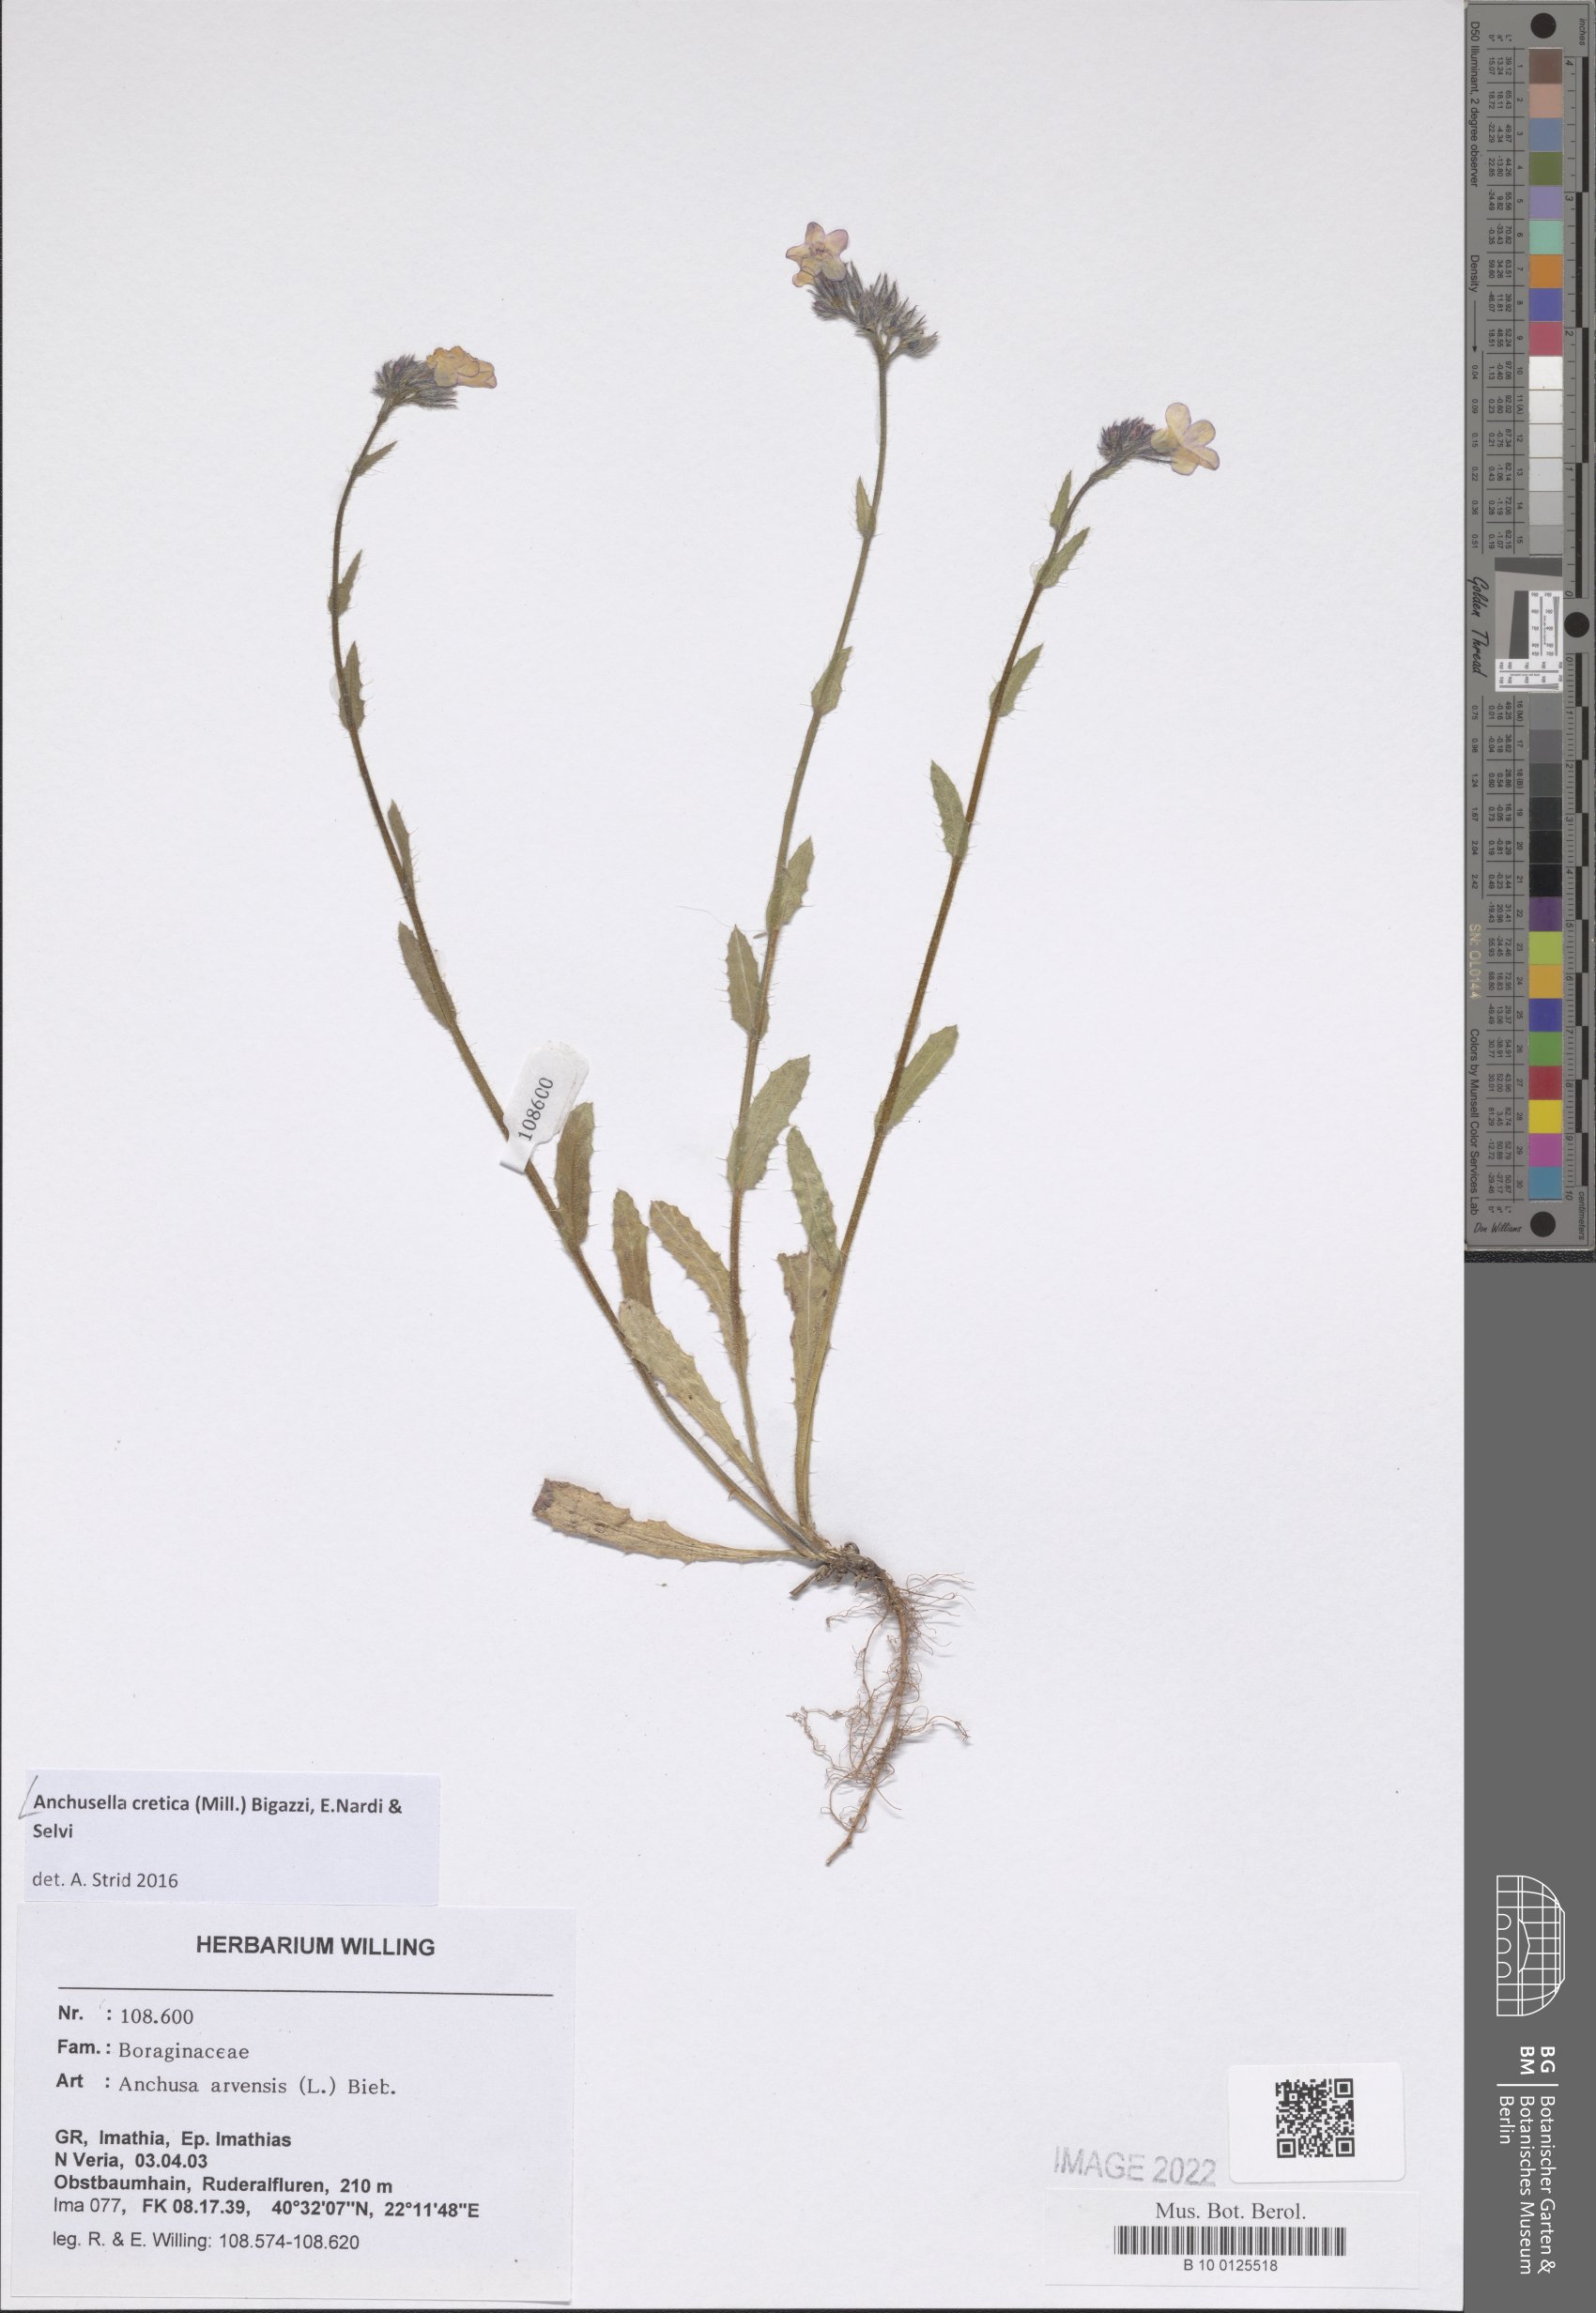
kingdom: Plantae
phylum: Tracheophyta
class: Magnoliopsida
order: Boraginales
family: Boraginaceae
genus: Anchusella
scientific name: Anchusella cretica
